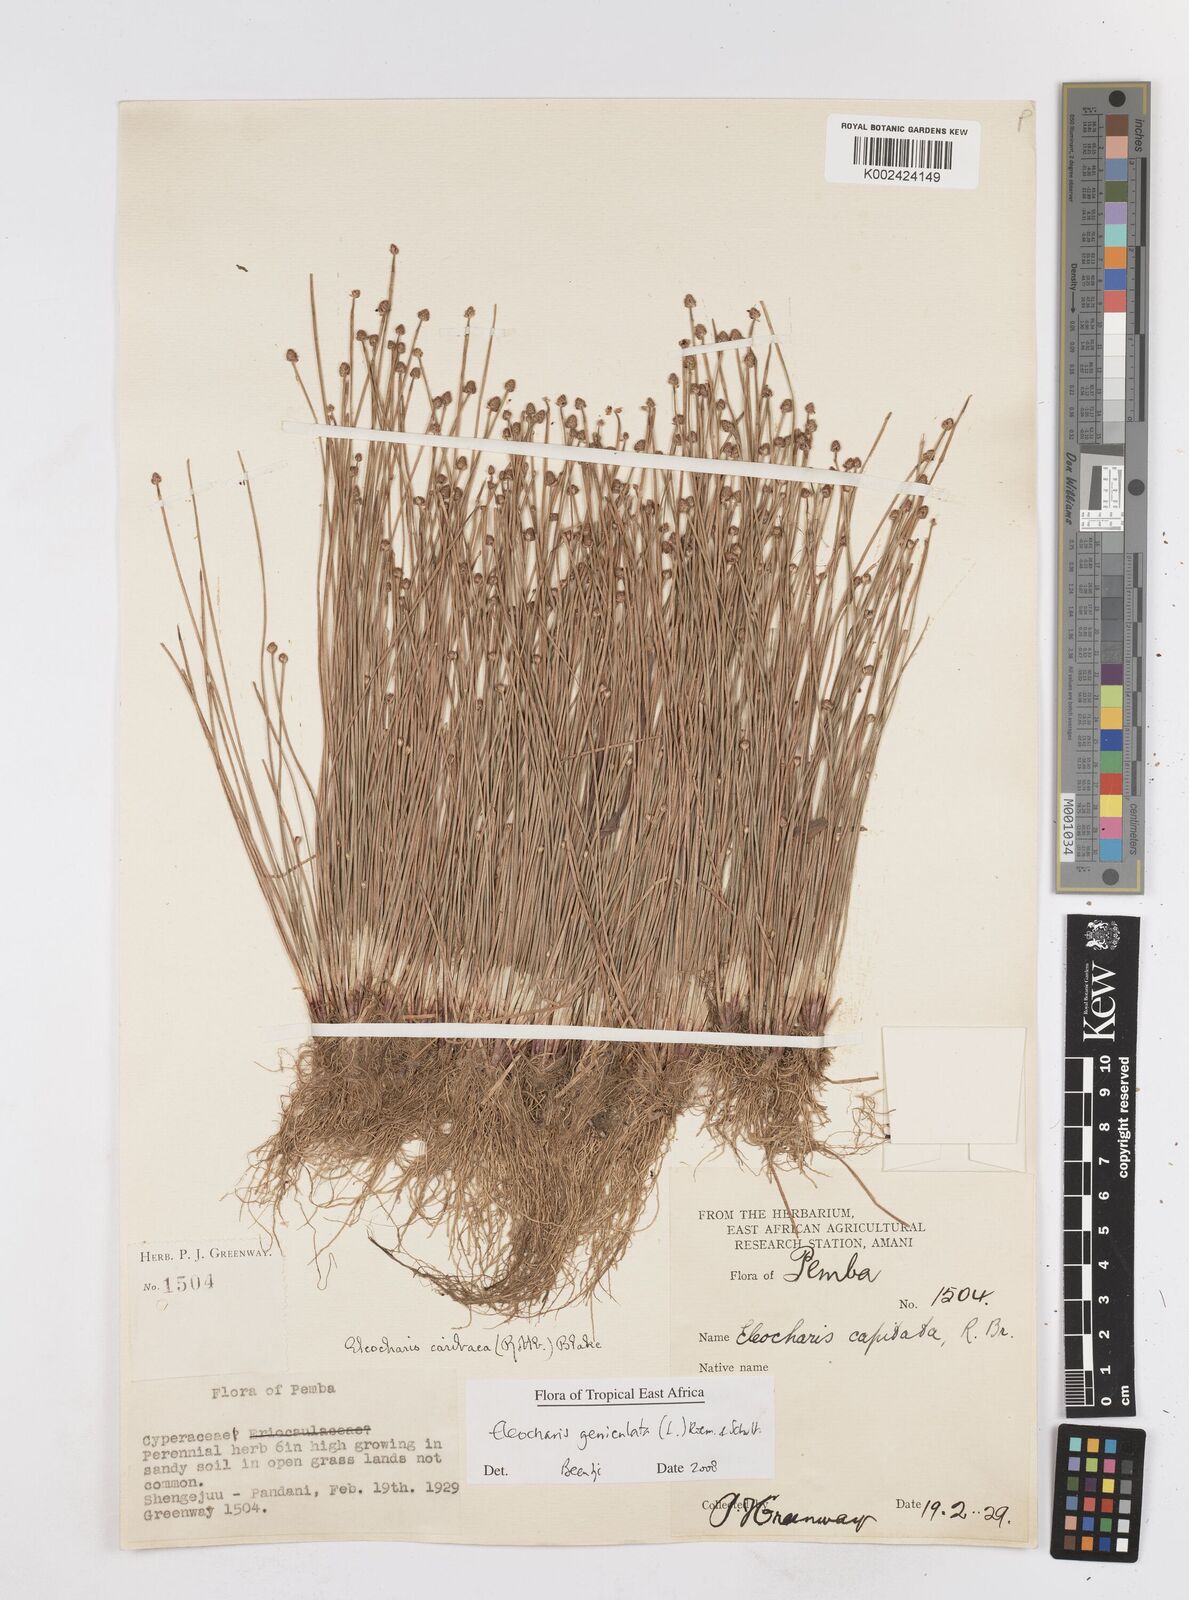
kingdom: Plantae
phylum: Tracheophyta
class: Liliopsida
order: Poales
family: Cyperaceae
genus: Eleocharis
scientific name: Eleocharis geniculata
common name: Canada spikesedge
